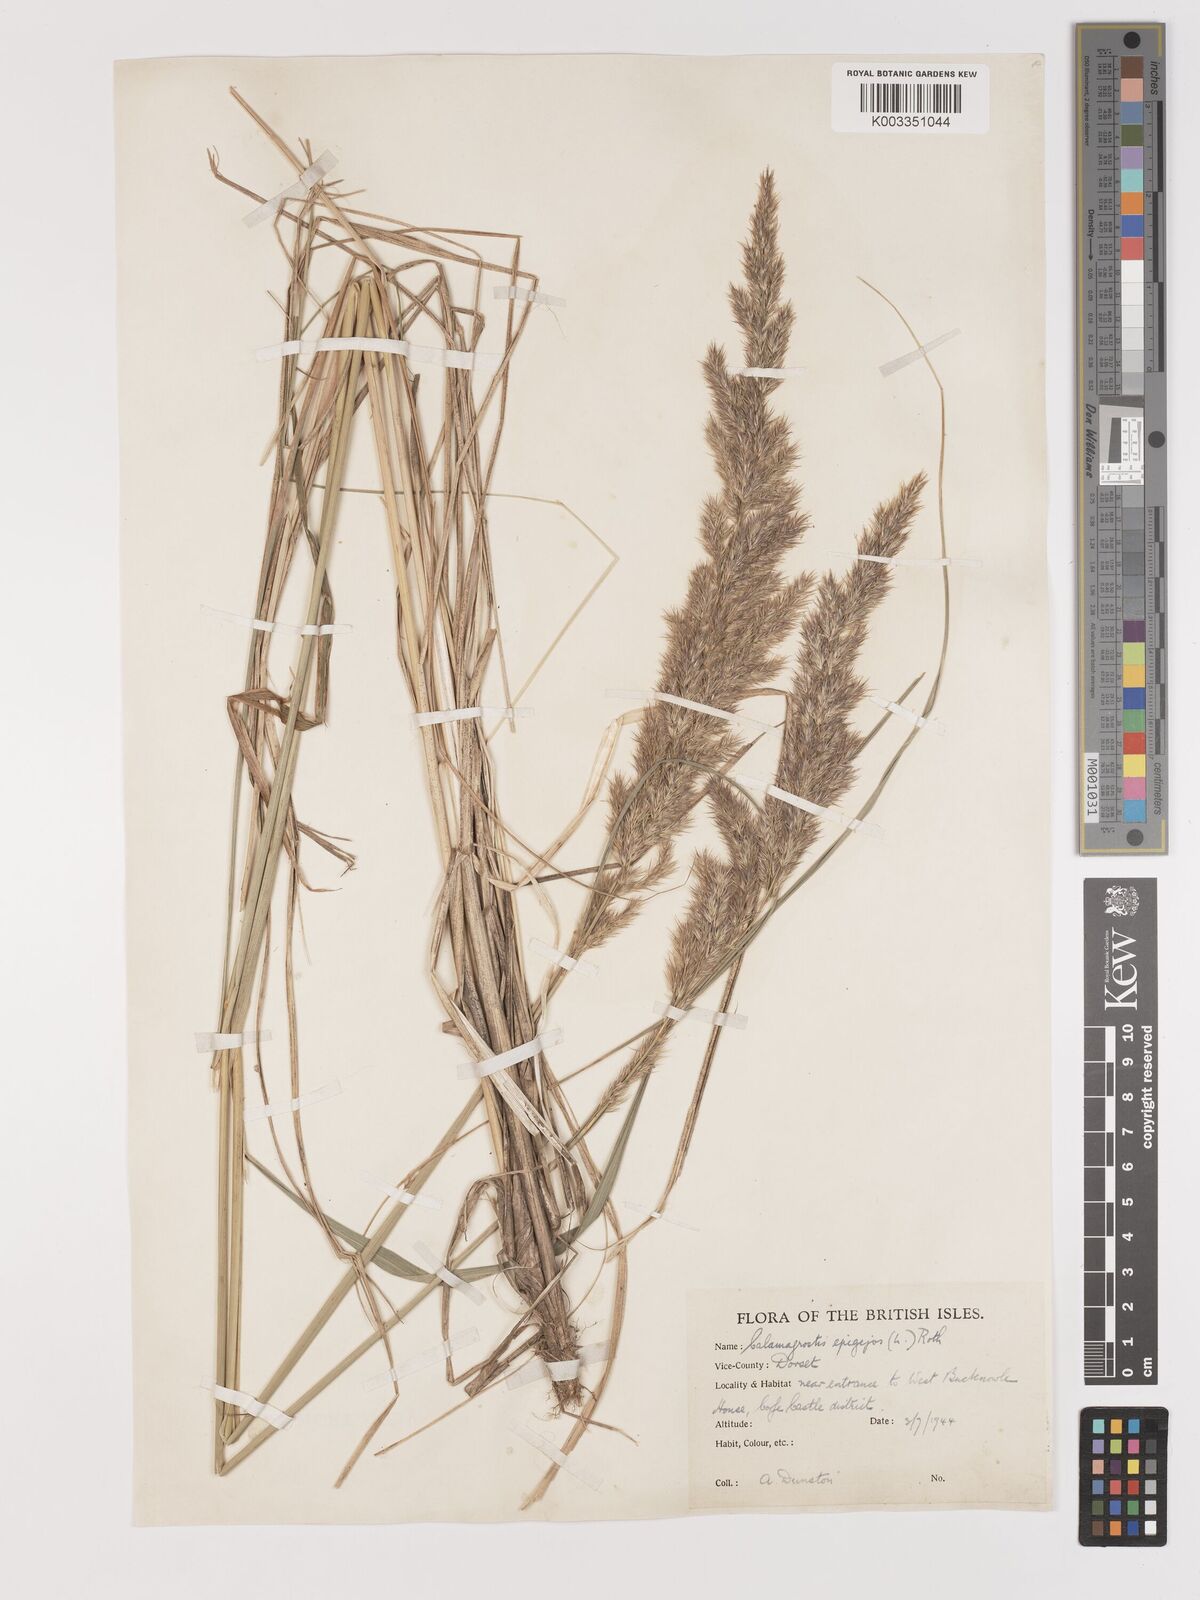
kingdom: Plantae
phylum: Tracheophyta
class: Liliopsida
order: Poales
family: Poaceae
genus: Calamagrostis
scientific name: Calamagrostis epigejos
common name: Wood small-reed
